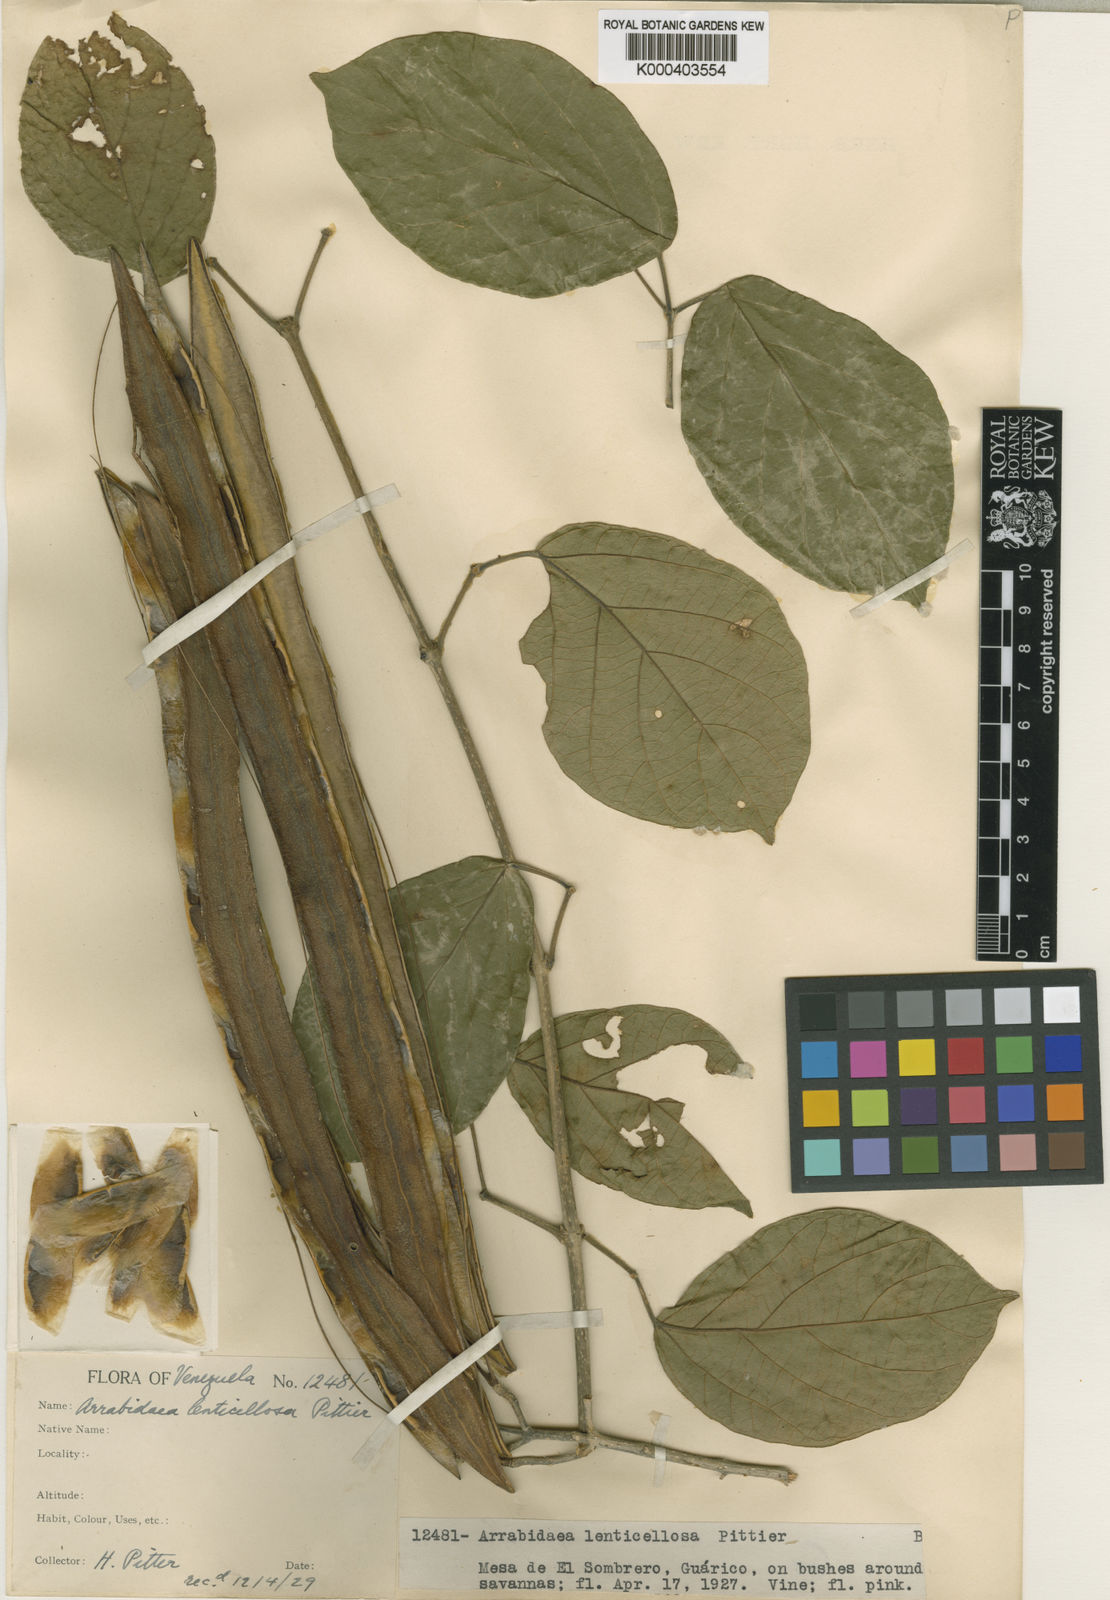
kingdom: Plantae
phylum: Tracheophyta
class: Magnoliopsida
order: Lamiales
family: Bignoniaceae
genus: Tanaecium
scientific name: Tanaecium
